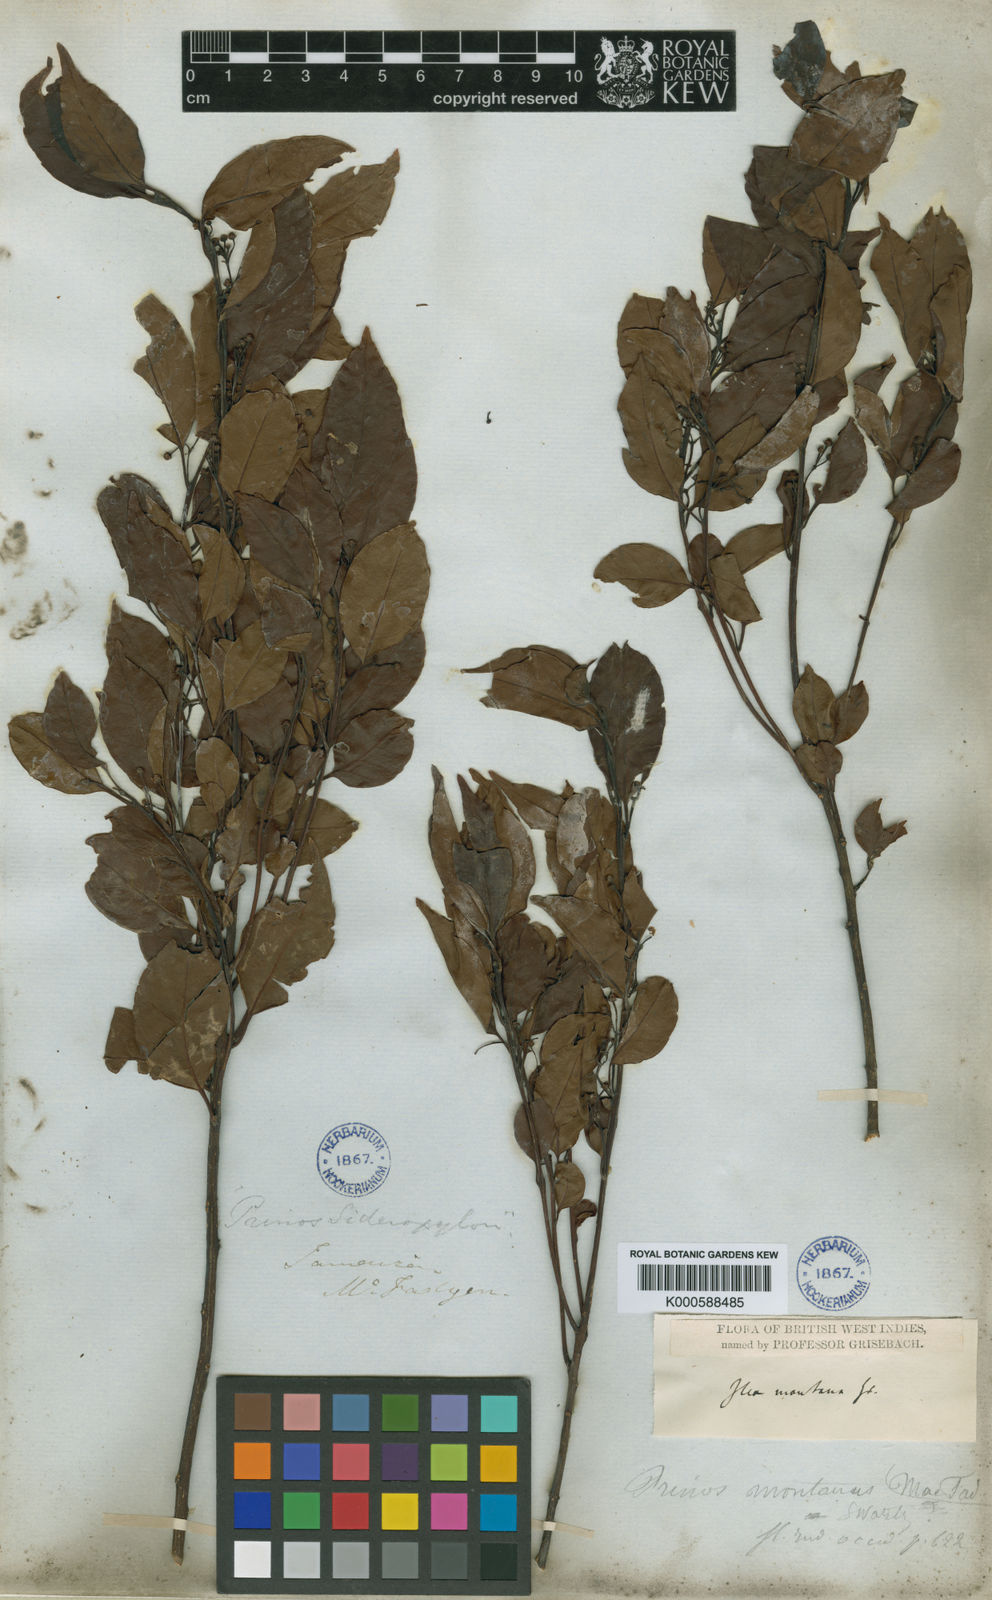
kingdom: Plantae
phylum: Tracheophyta
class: Magnoliopsida
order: Aquifoliales
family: Aquifoliaceae
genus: Ilex
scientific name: Ilex macfadyenii
